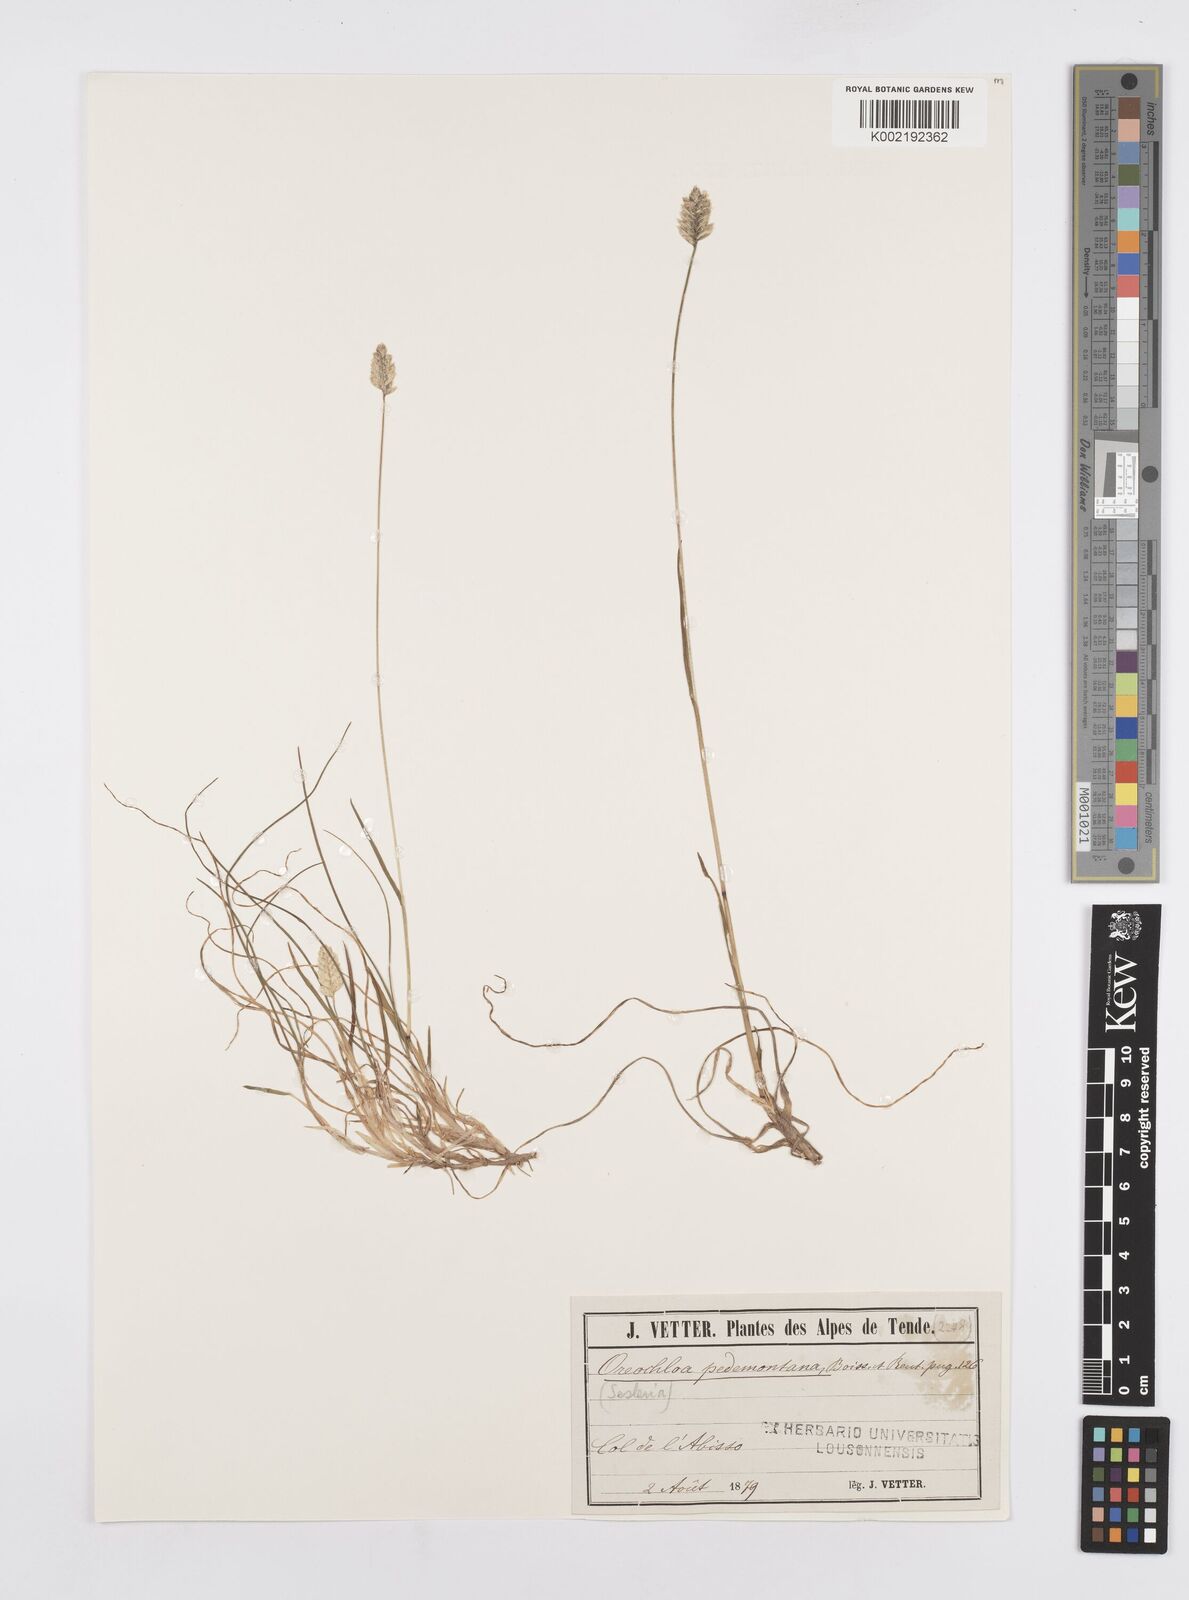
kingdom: Plantae
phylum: Tracheophyta
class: Liliopsida
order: Poales
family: Poaceae
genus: Oreochloa
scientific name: Oreochloa seslerioides
